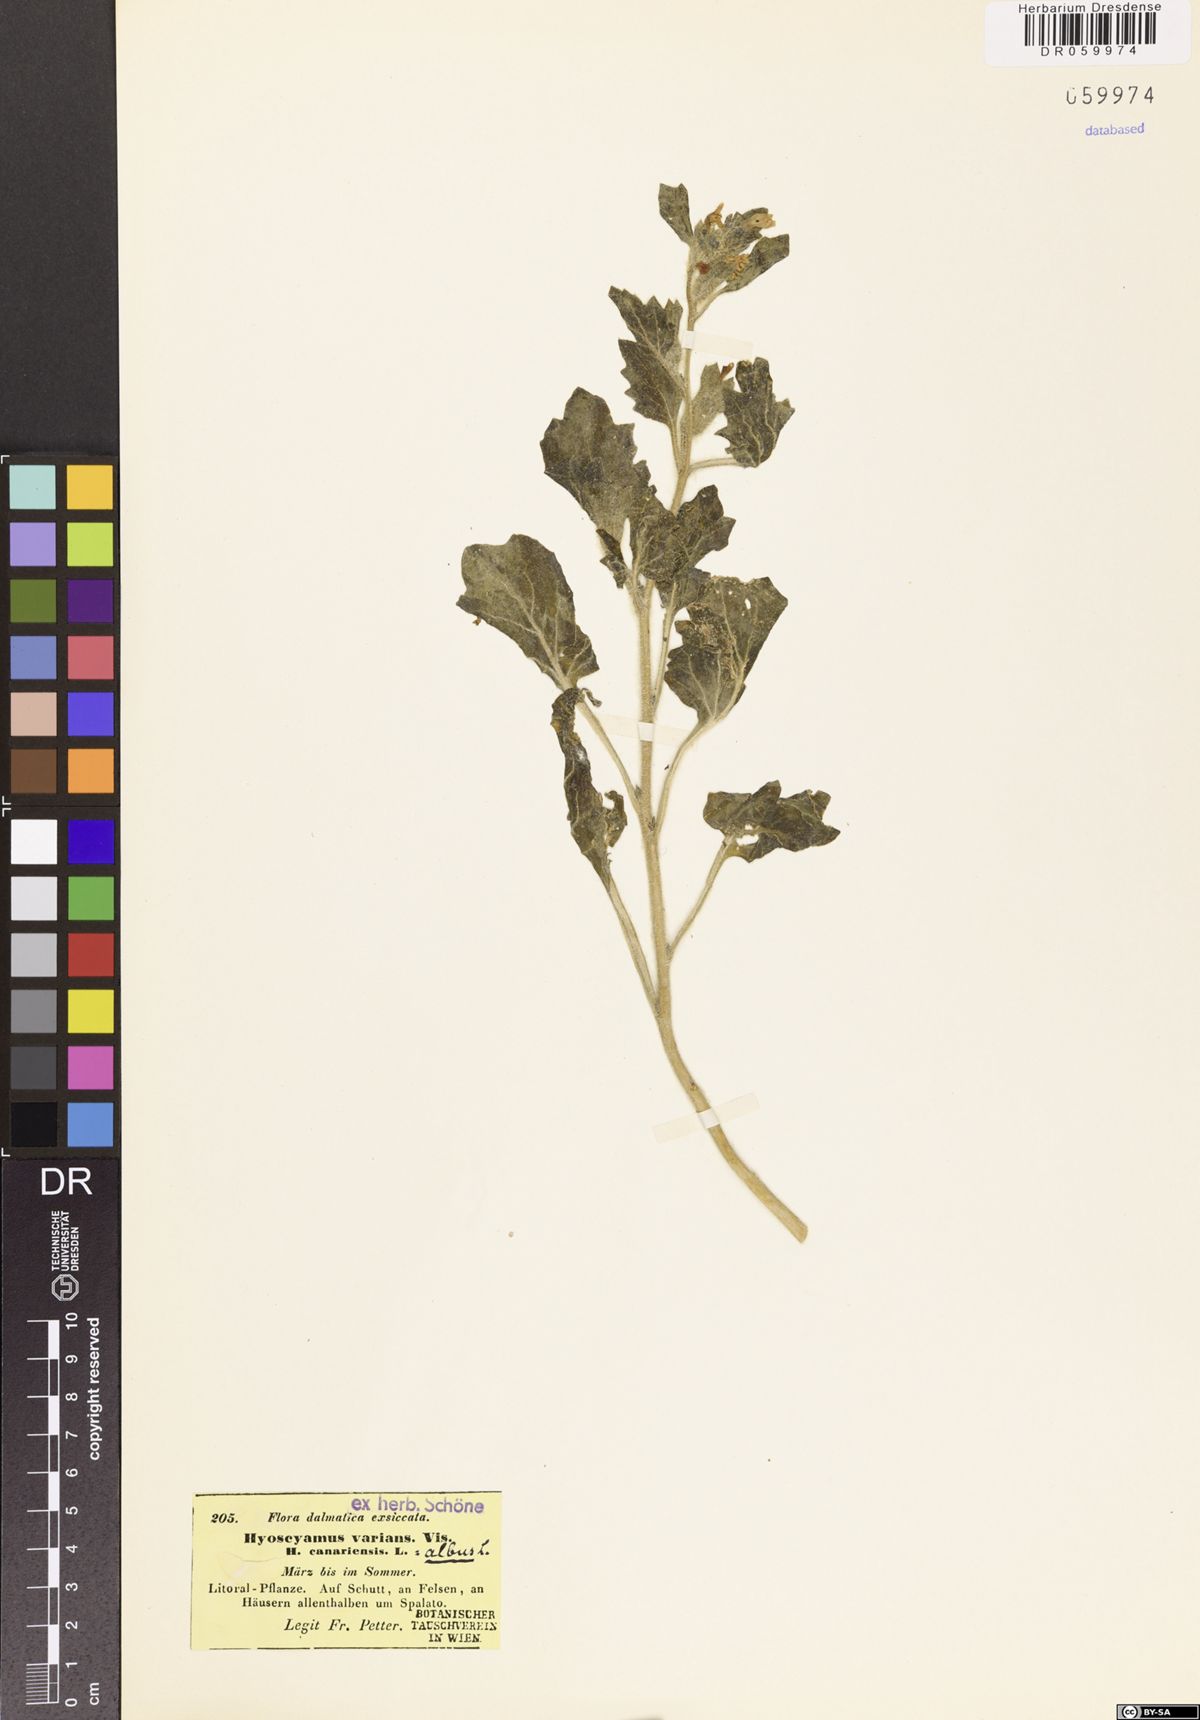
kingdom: Plantae
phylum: Tracheophyta
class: Magnoliopsida
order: Solanales
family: Solanaceae
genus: Hyoscyamus
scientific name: Hyoscyamus albus
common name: White henbane
